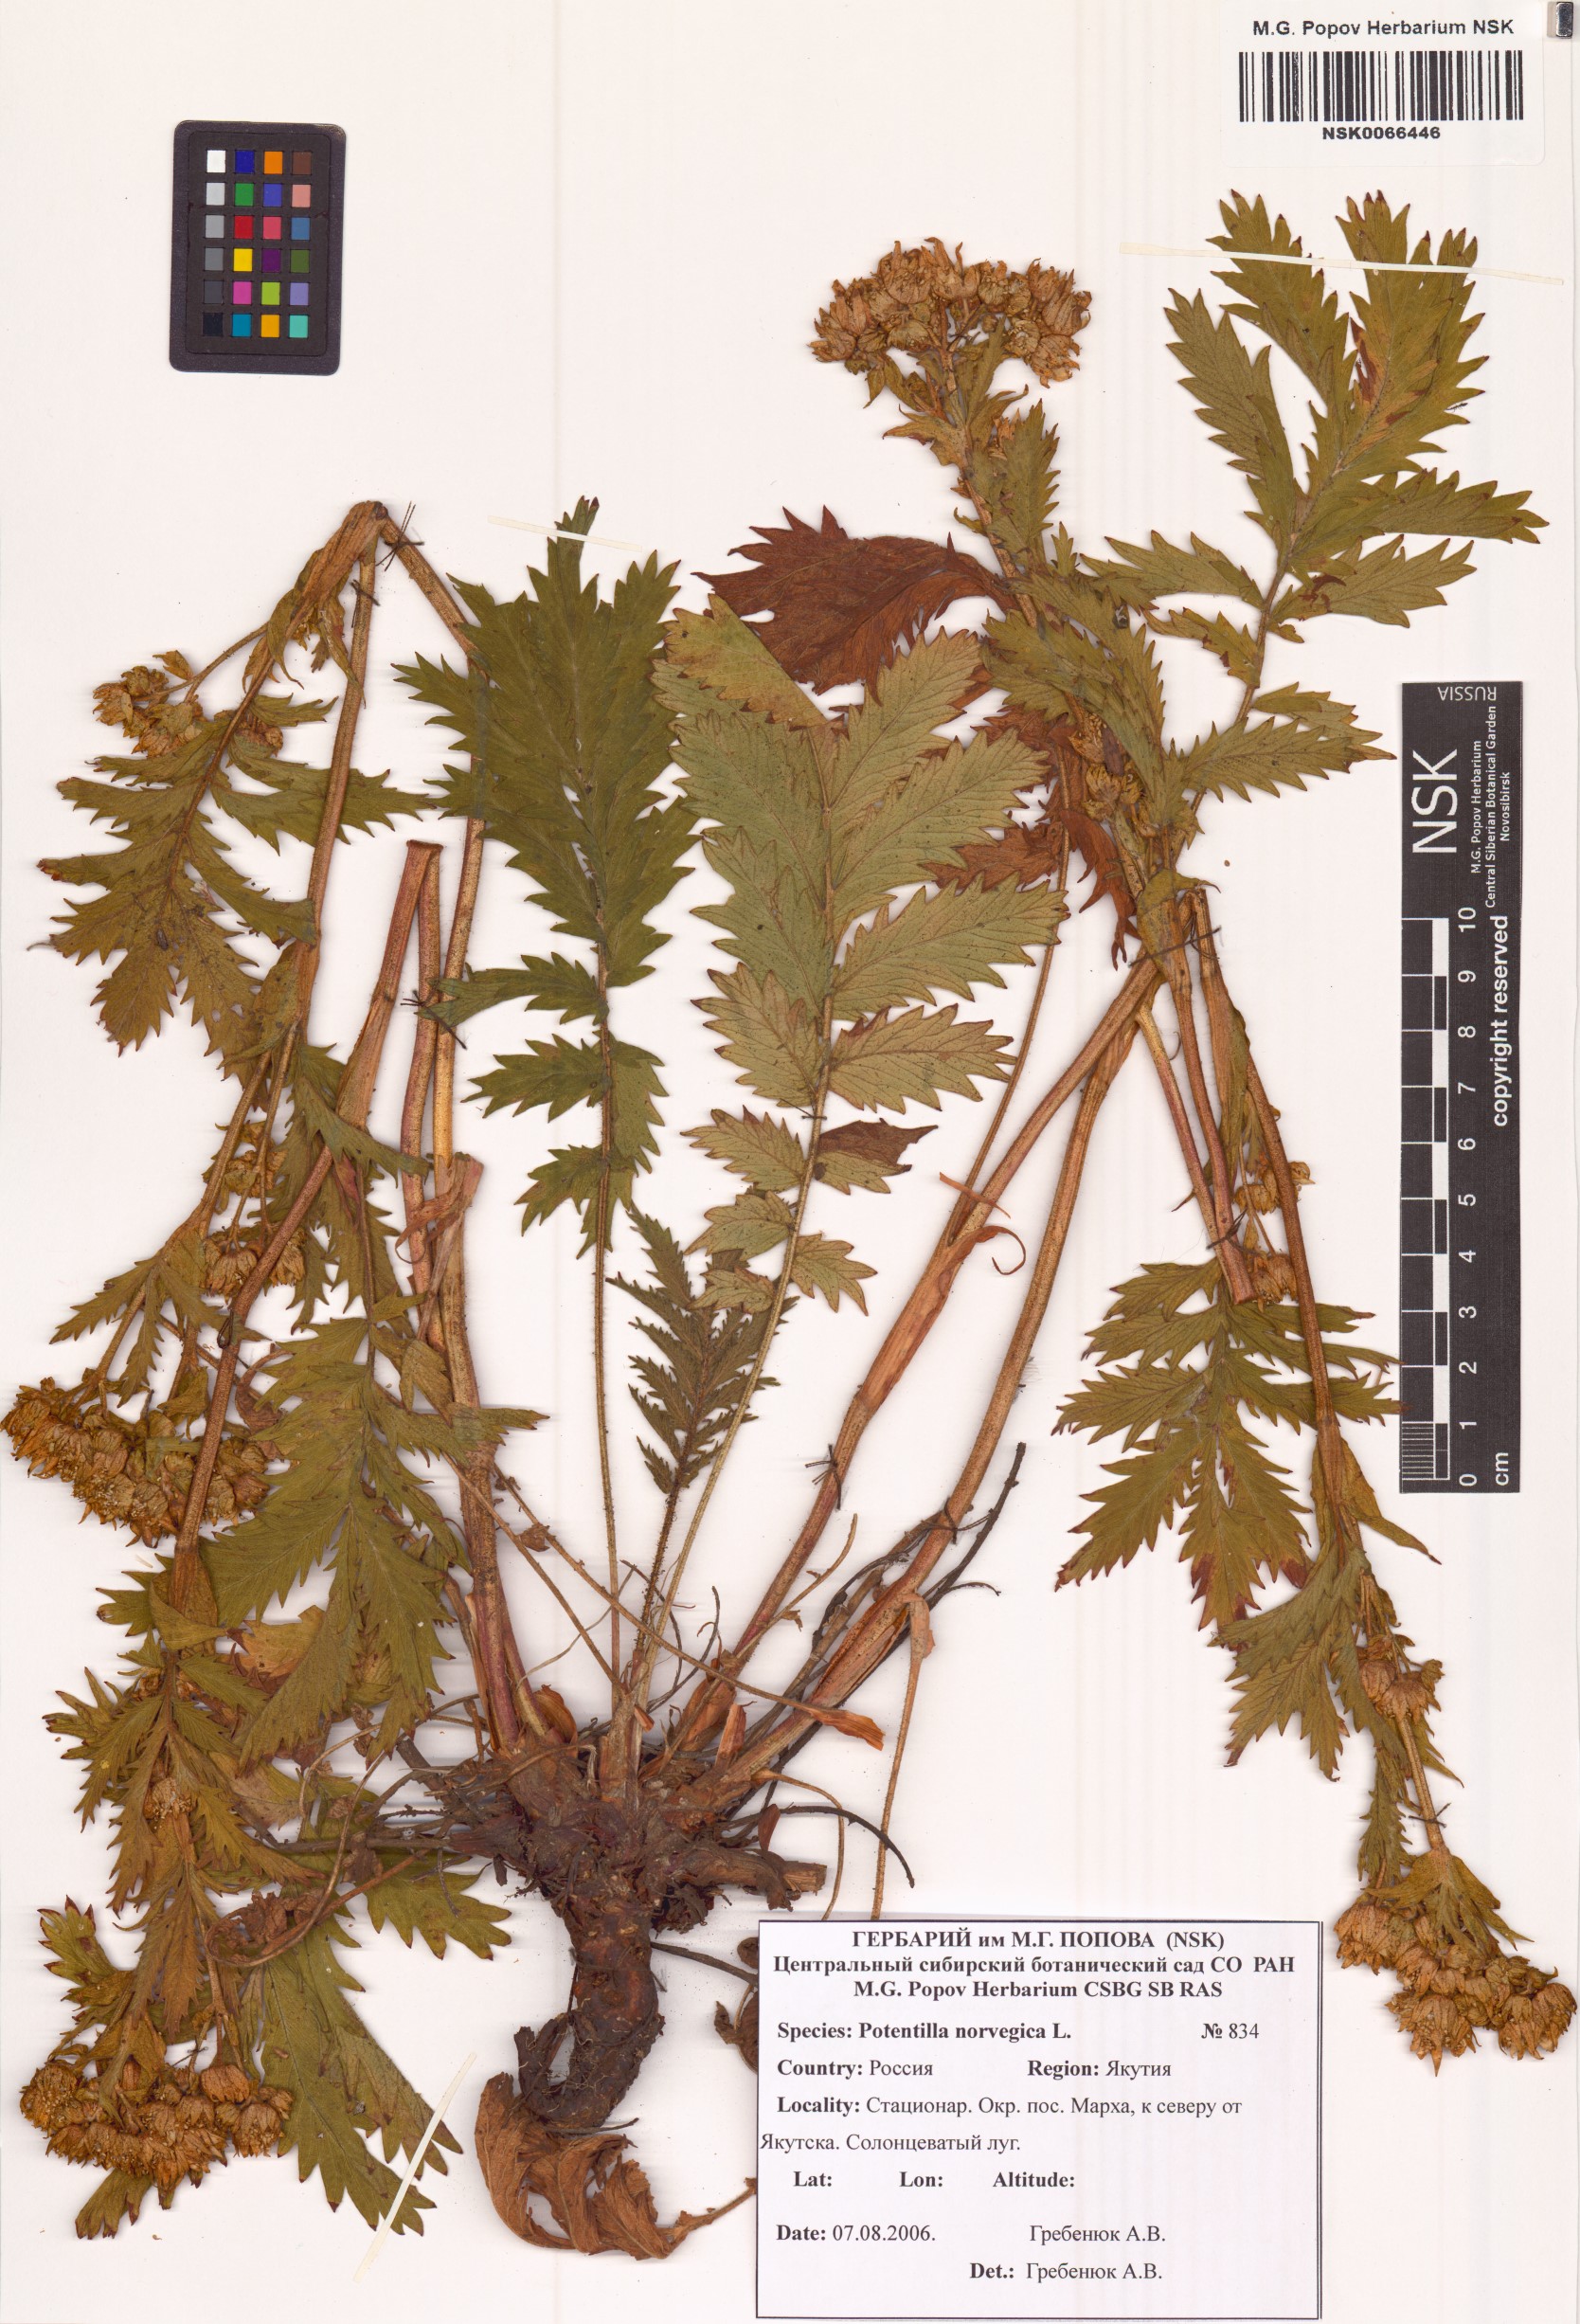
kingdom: Plantae
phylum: Tracheophyta
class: Magnoliopsida
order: Rosales
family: Rosaceae
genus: Potentilla
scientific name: Potentilla norvegica
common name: Ternate-leaved cinquefoil
